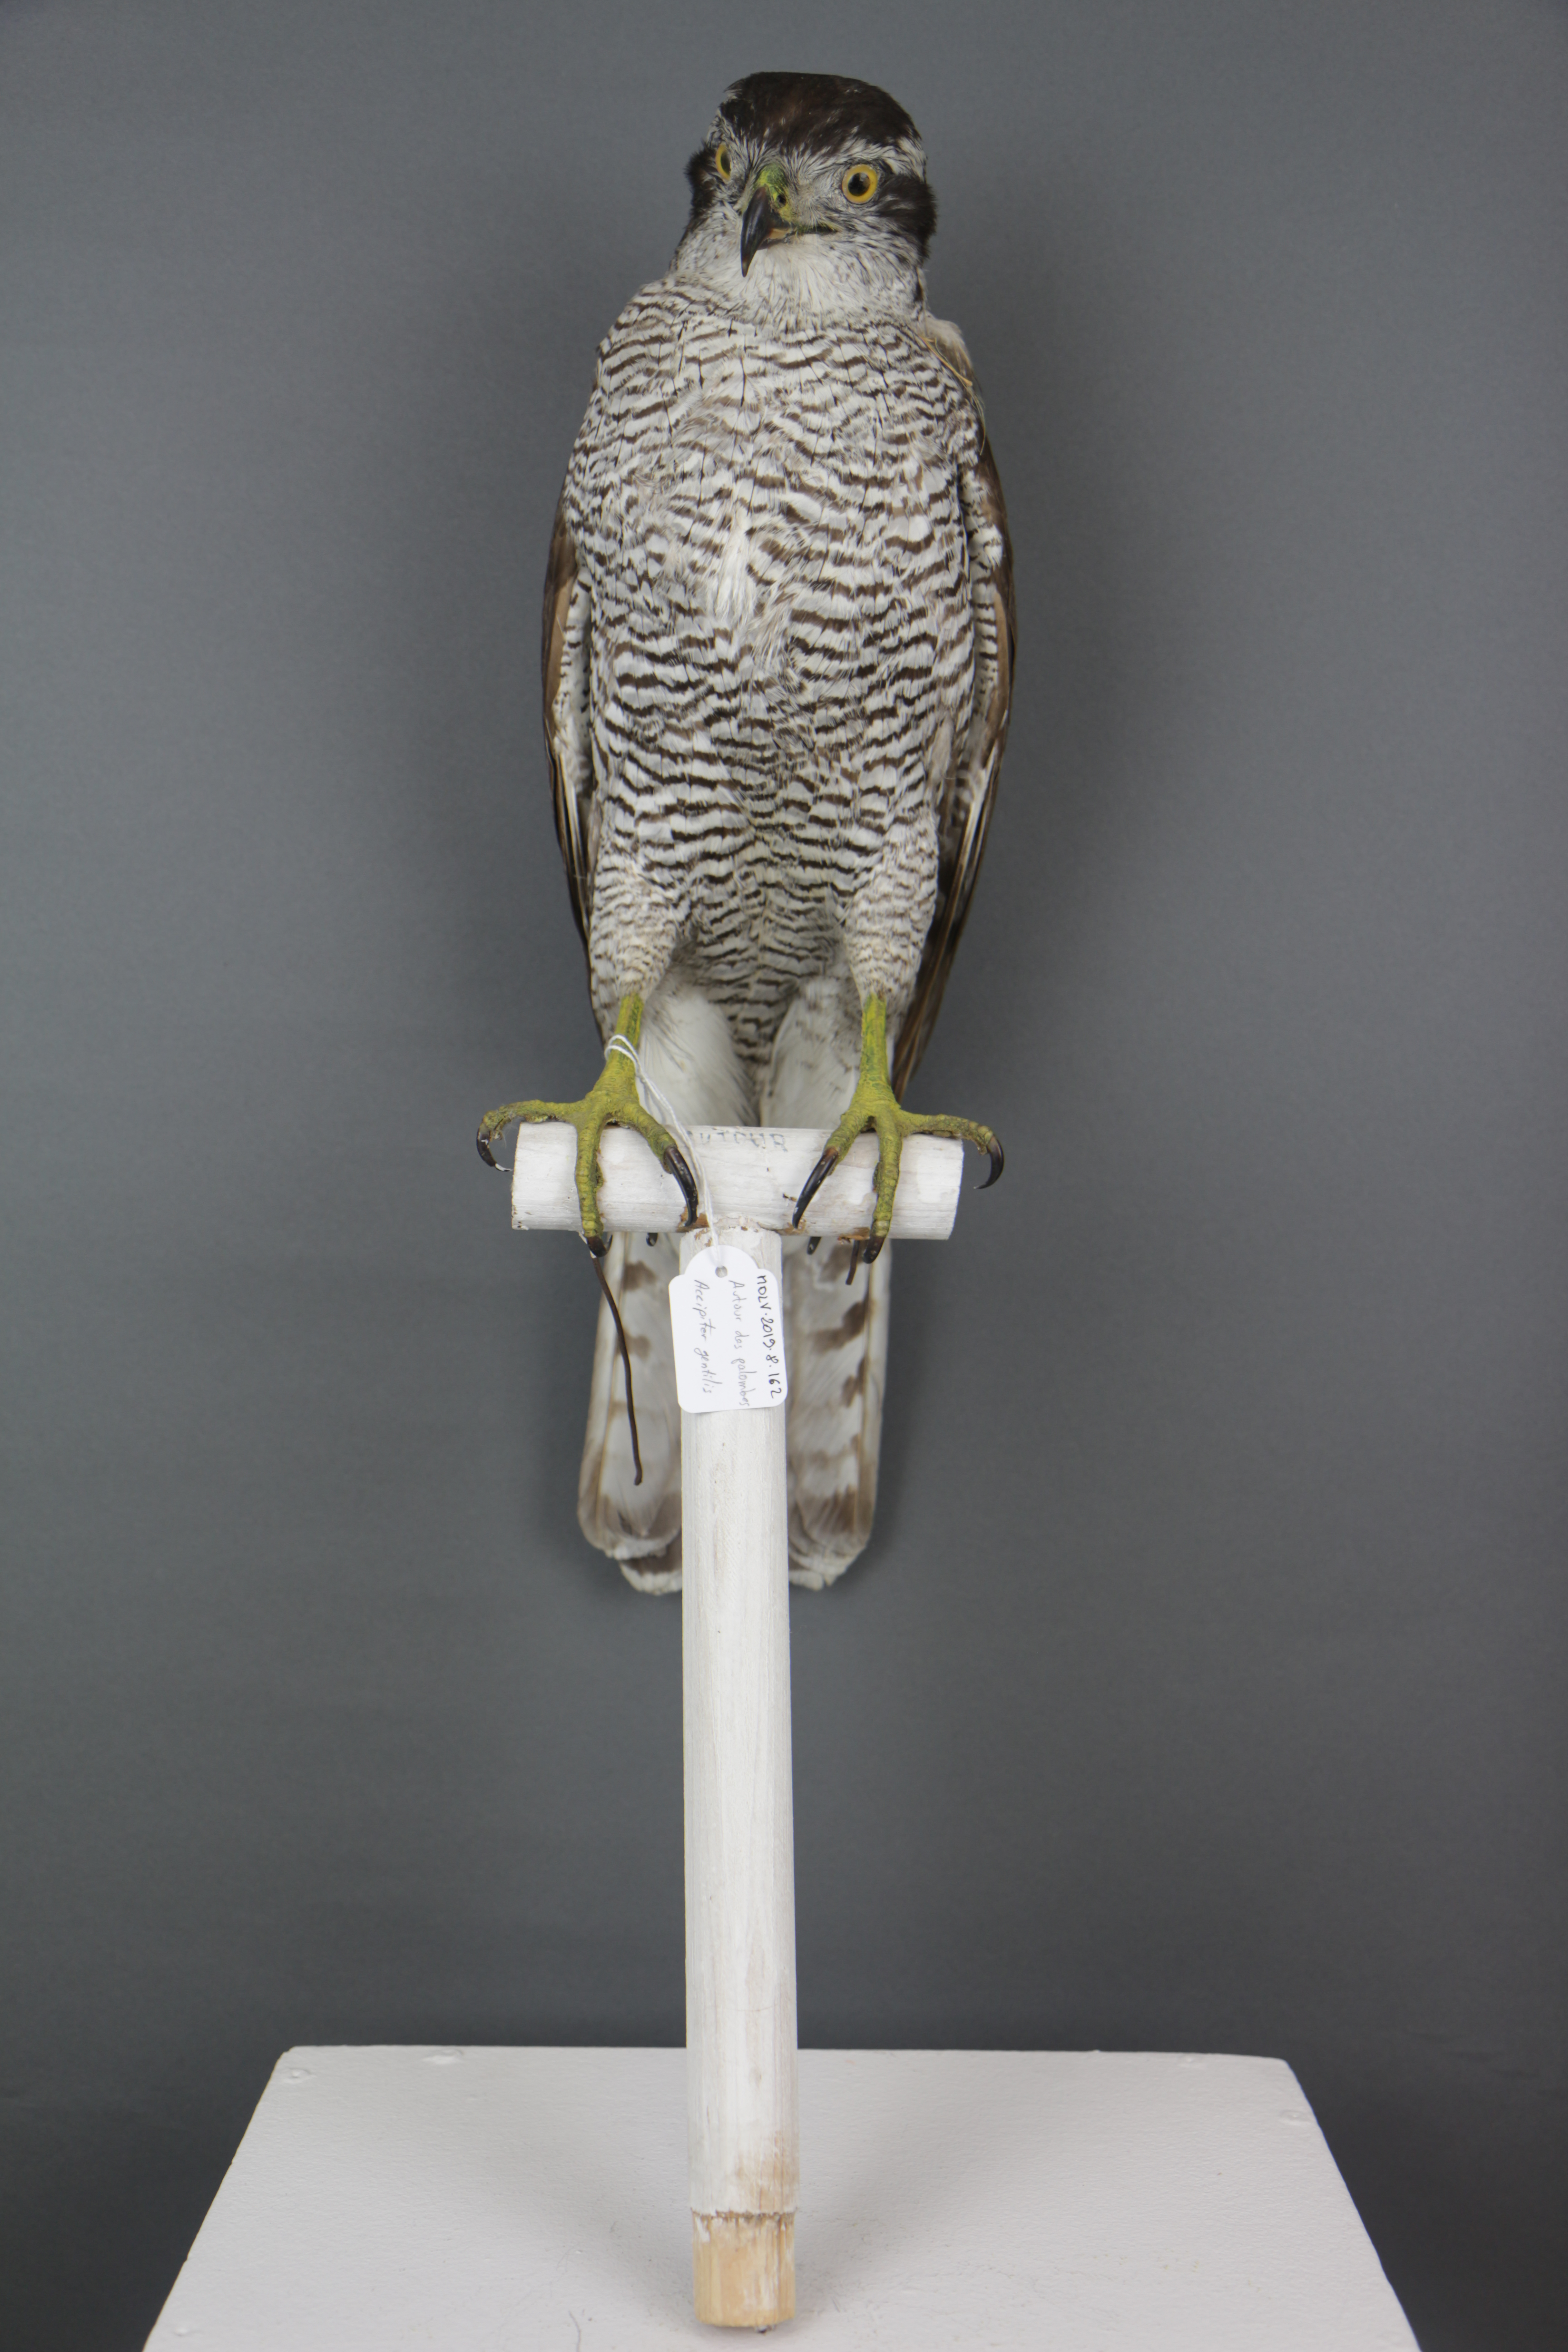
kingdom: Animalia
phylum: Chordata
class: Aves
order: Accipitriformes
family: Accipitridae
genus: Accipiter
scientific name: Accipiter gentilis
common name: Northern goshawk
